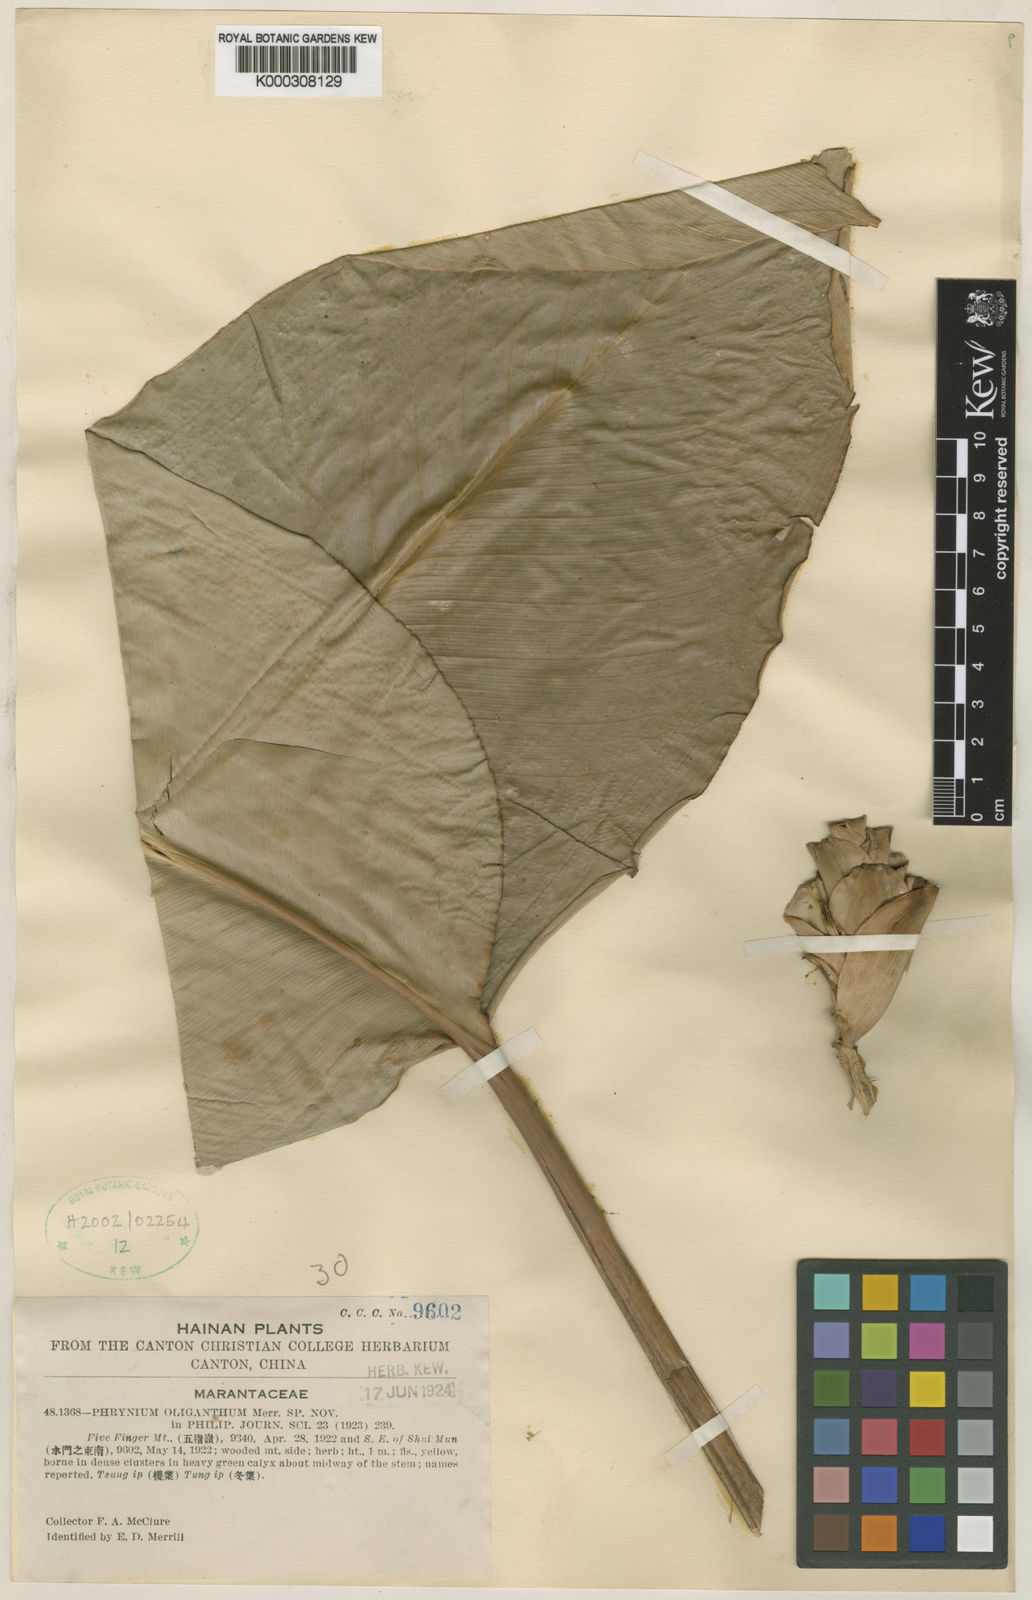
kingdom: Plantae
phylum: Tracheophyta
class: Liliopsida
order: Zingiberales
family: Marantaceae
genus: Phrynium
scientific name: Phrynium imbricatum
